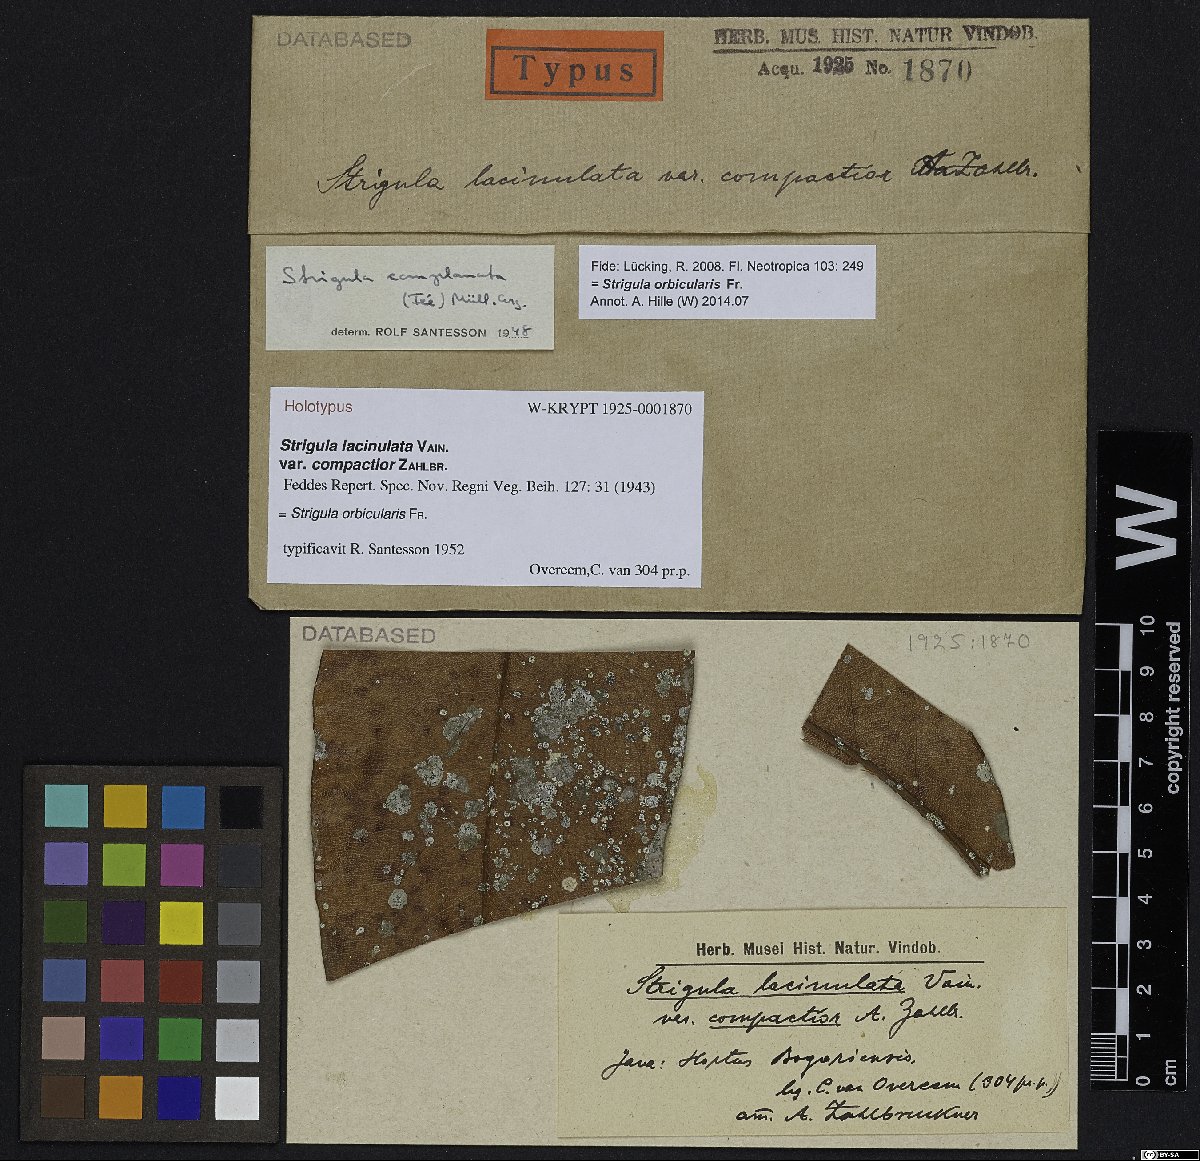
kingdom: Fungi
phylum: Ascomycota
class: Dothideomycetes
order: Strigulales
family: Strigulaceae
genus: Strigula
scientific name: Strigula
